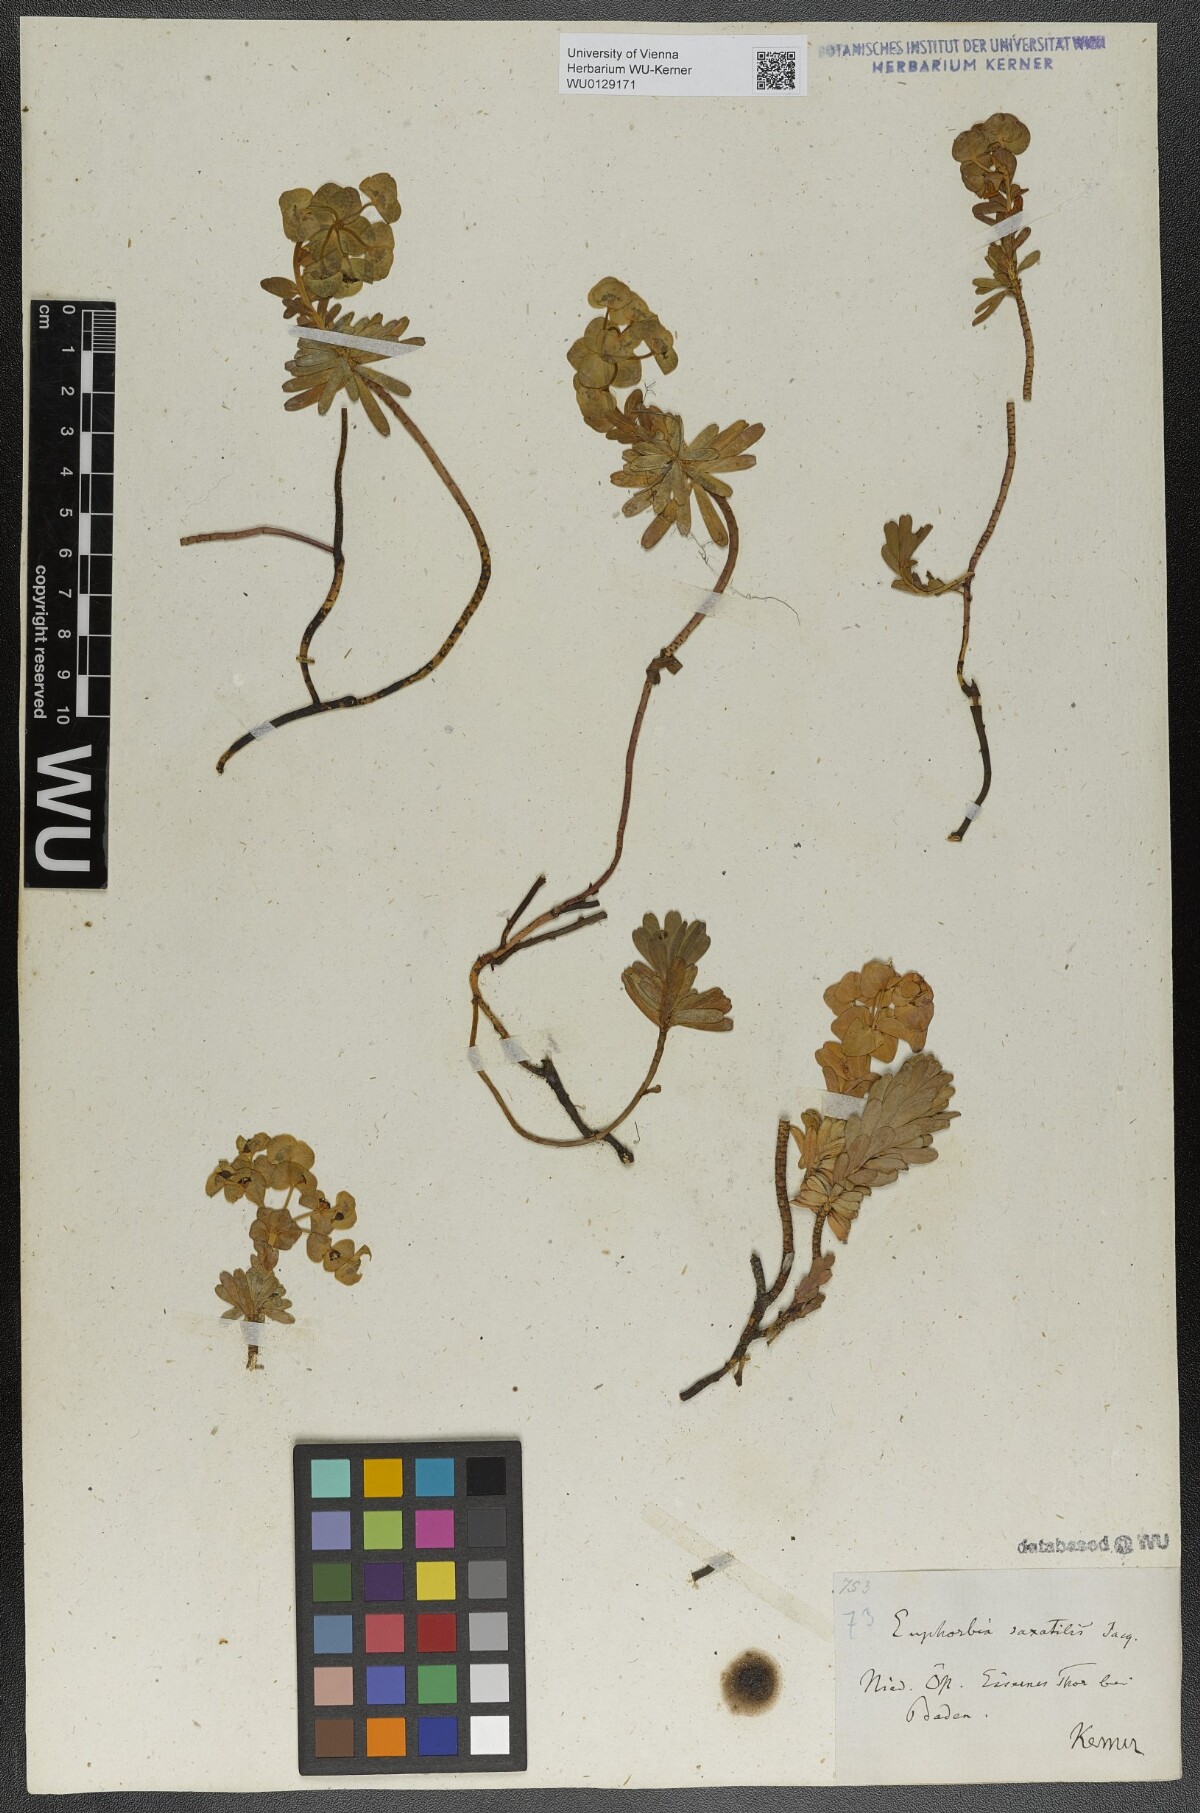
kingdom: Plantae
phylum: Tracheophyta
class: Magnoliopsida
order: Malpighiales
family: Euphorbiaceae
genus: Euphorbia
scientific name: Euphorbia saxatilis
